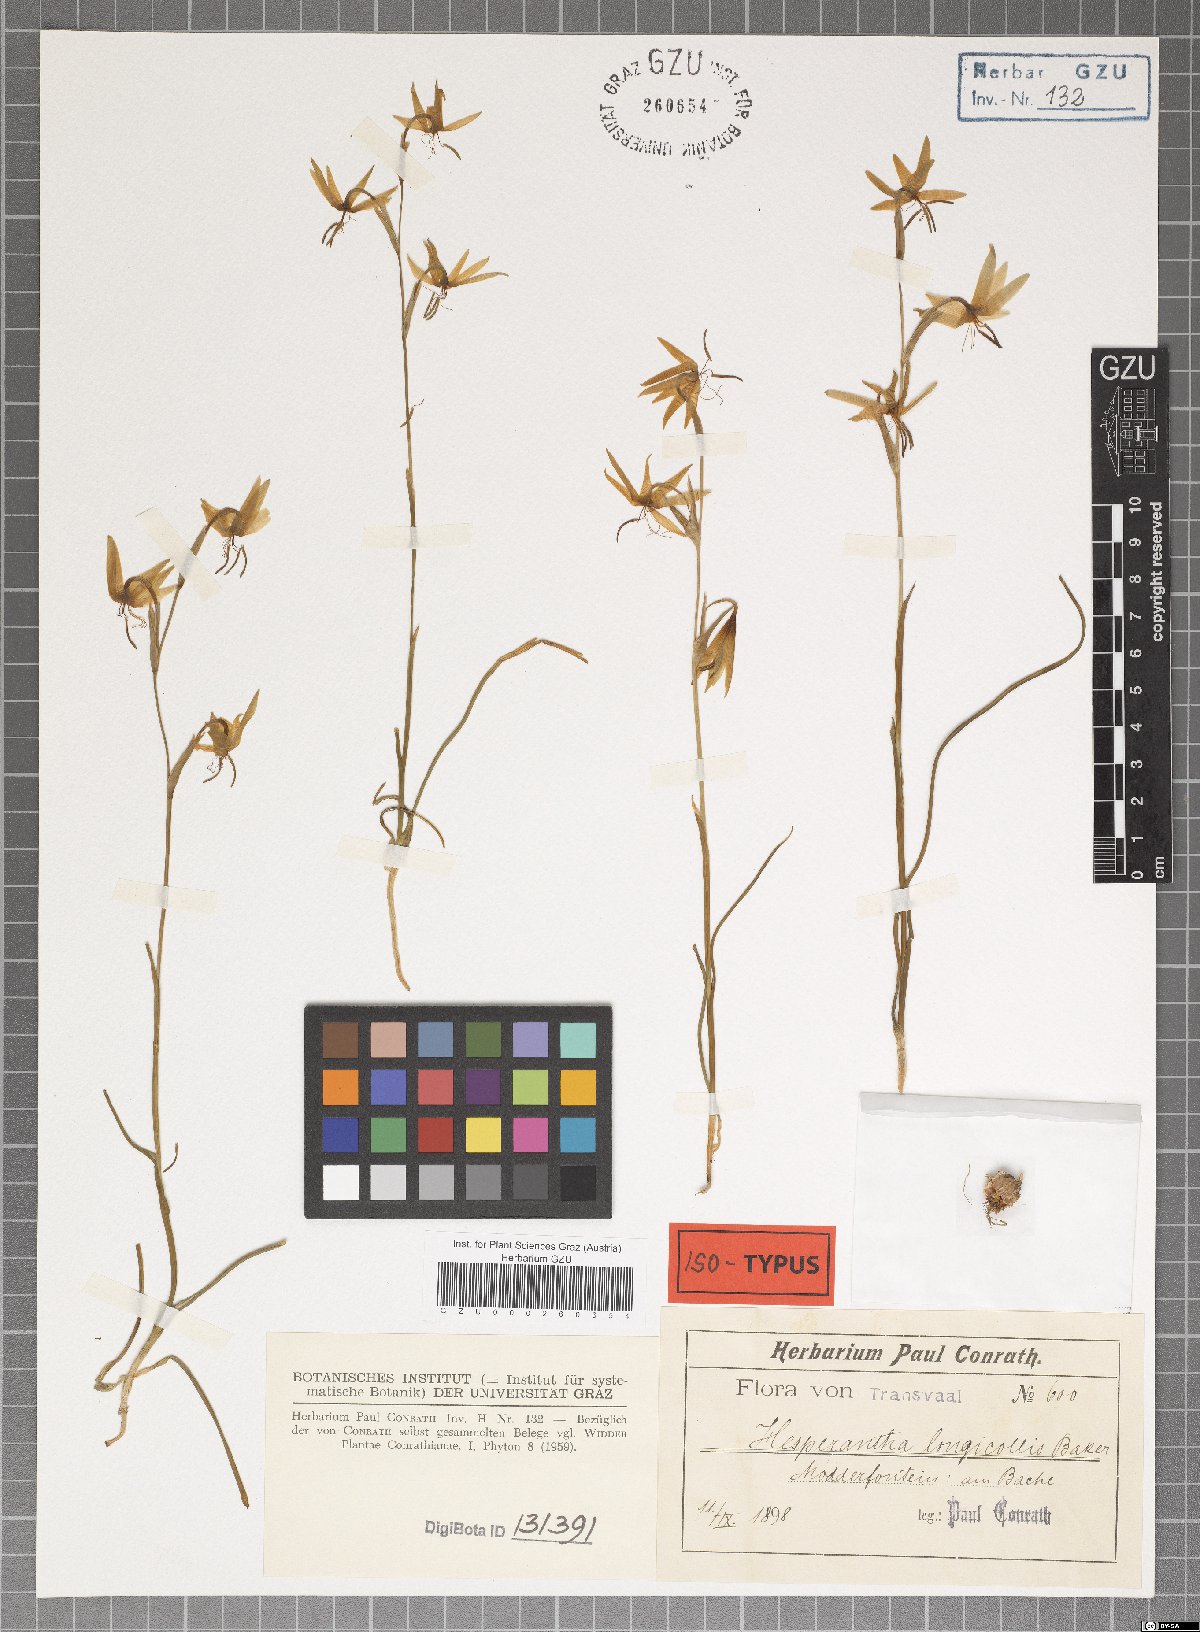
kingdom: Plantae
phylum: Tracheophyta
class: Liliopsida
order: Asparagales
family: Iridaceae
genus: Hesperantha
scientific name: Hesperantha longicollis
